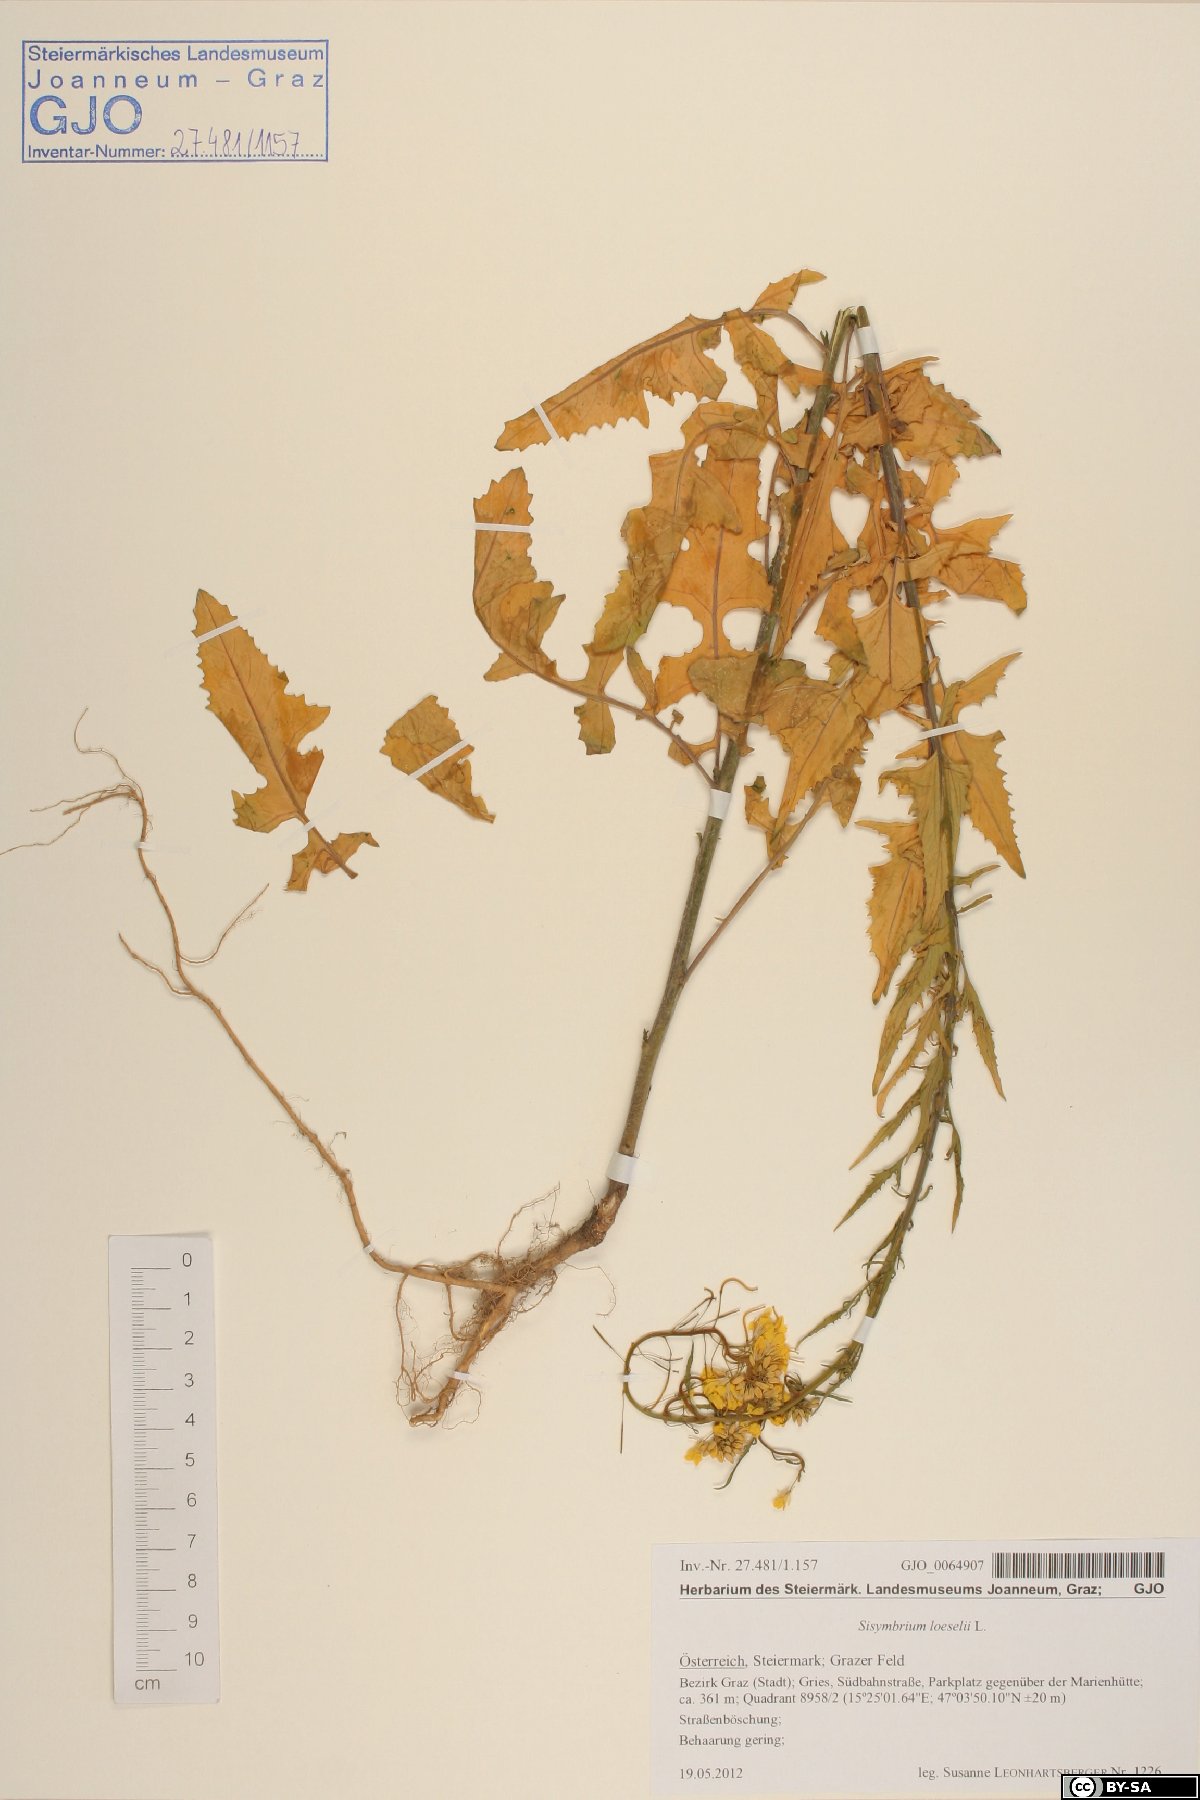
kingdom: Plantae
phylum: Tracheophyta
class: Magnoliopsida
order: Brassicales
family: Brassicaceae
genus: Sisymbrium
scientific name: Sisymbrium loeselii
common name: False london-rocket
